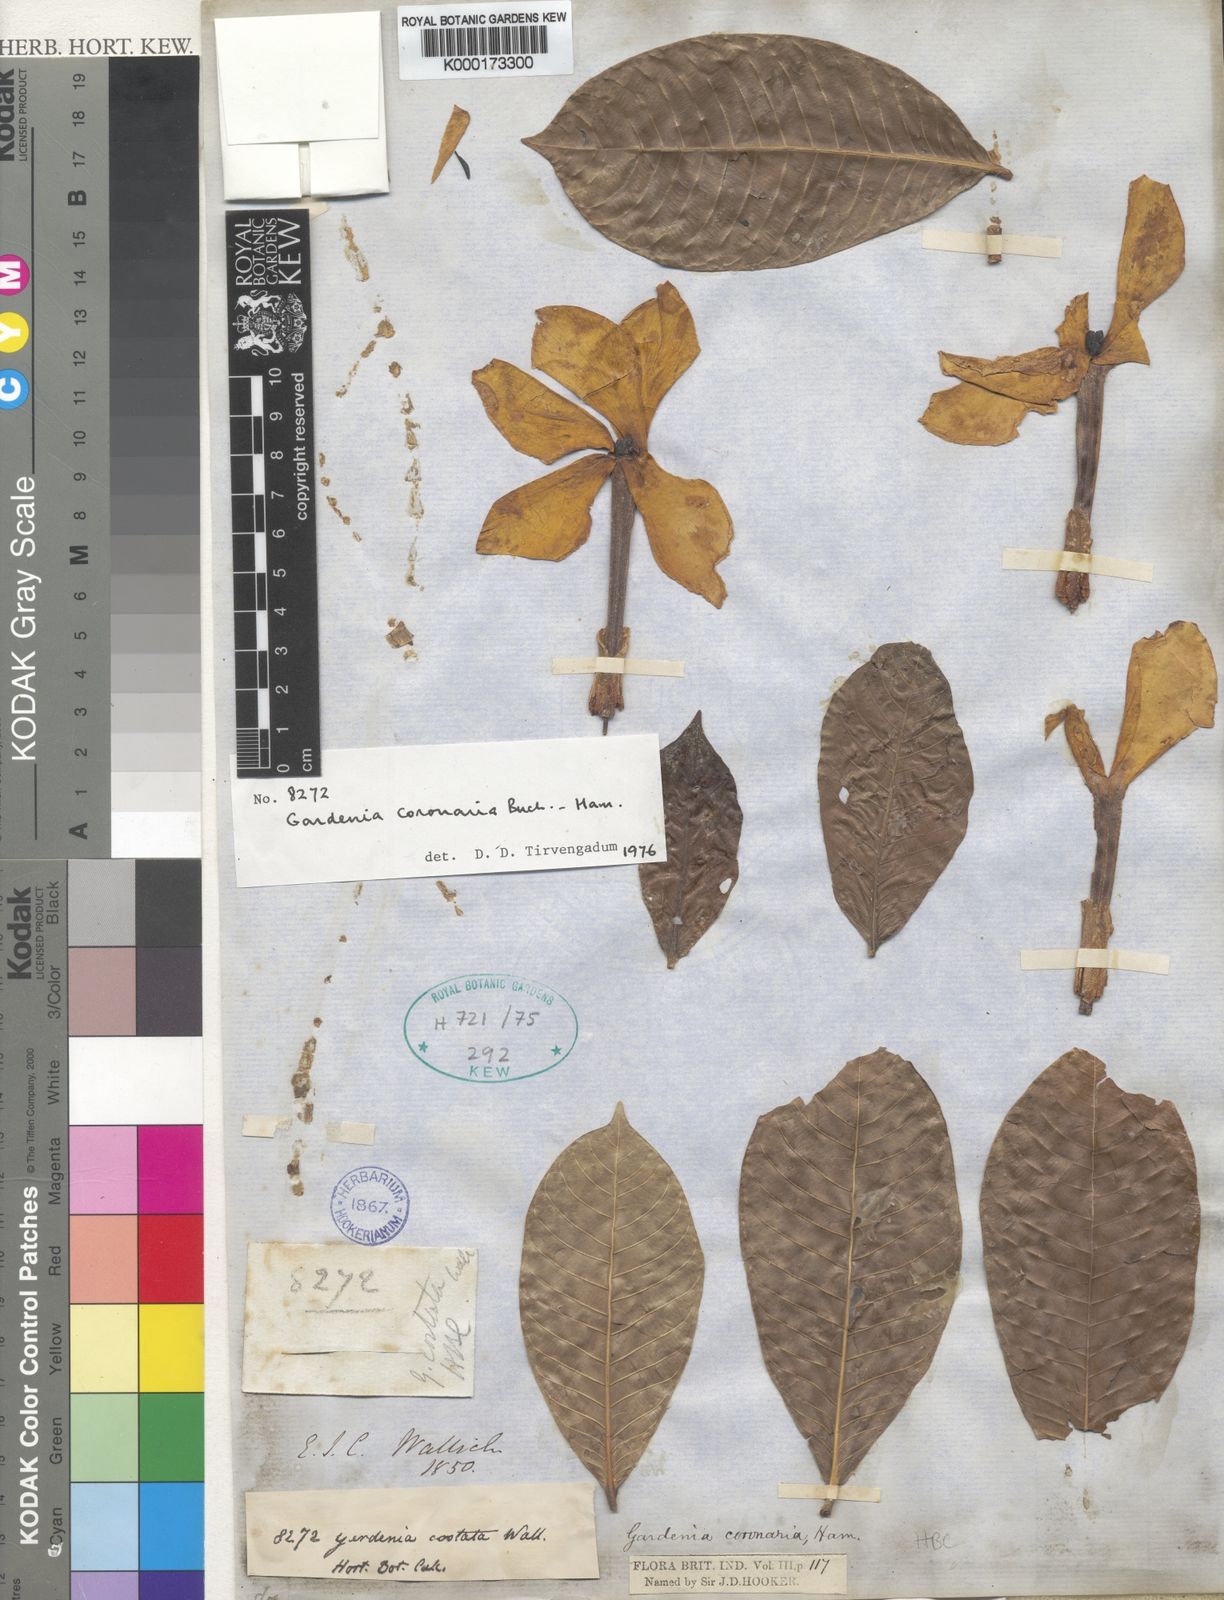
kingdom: Plantae
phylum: Tracheophyta
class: Magnoliopsida
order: Gentianales
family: Rubiaceae
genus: Gardenia
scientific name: Gardenia
